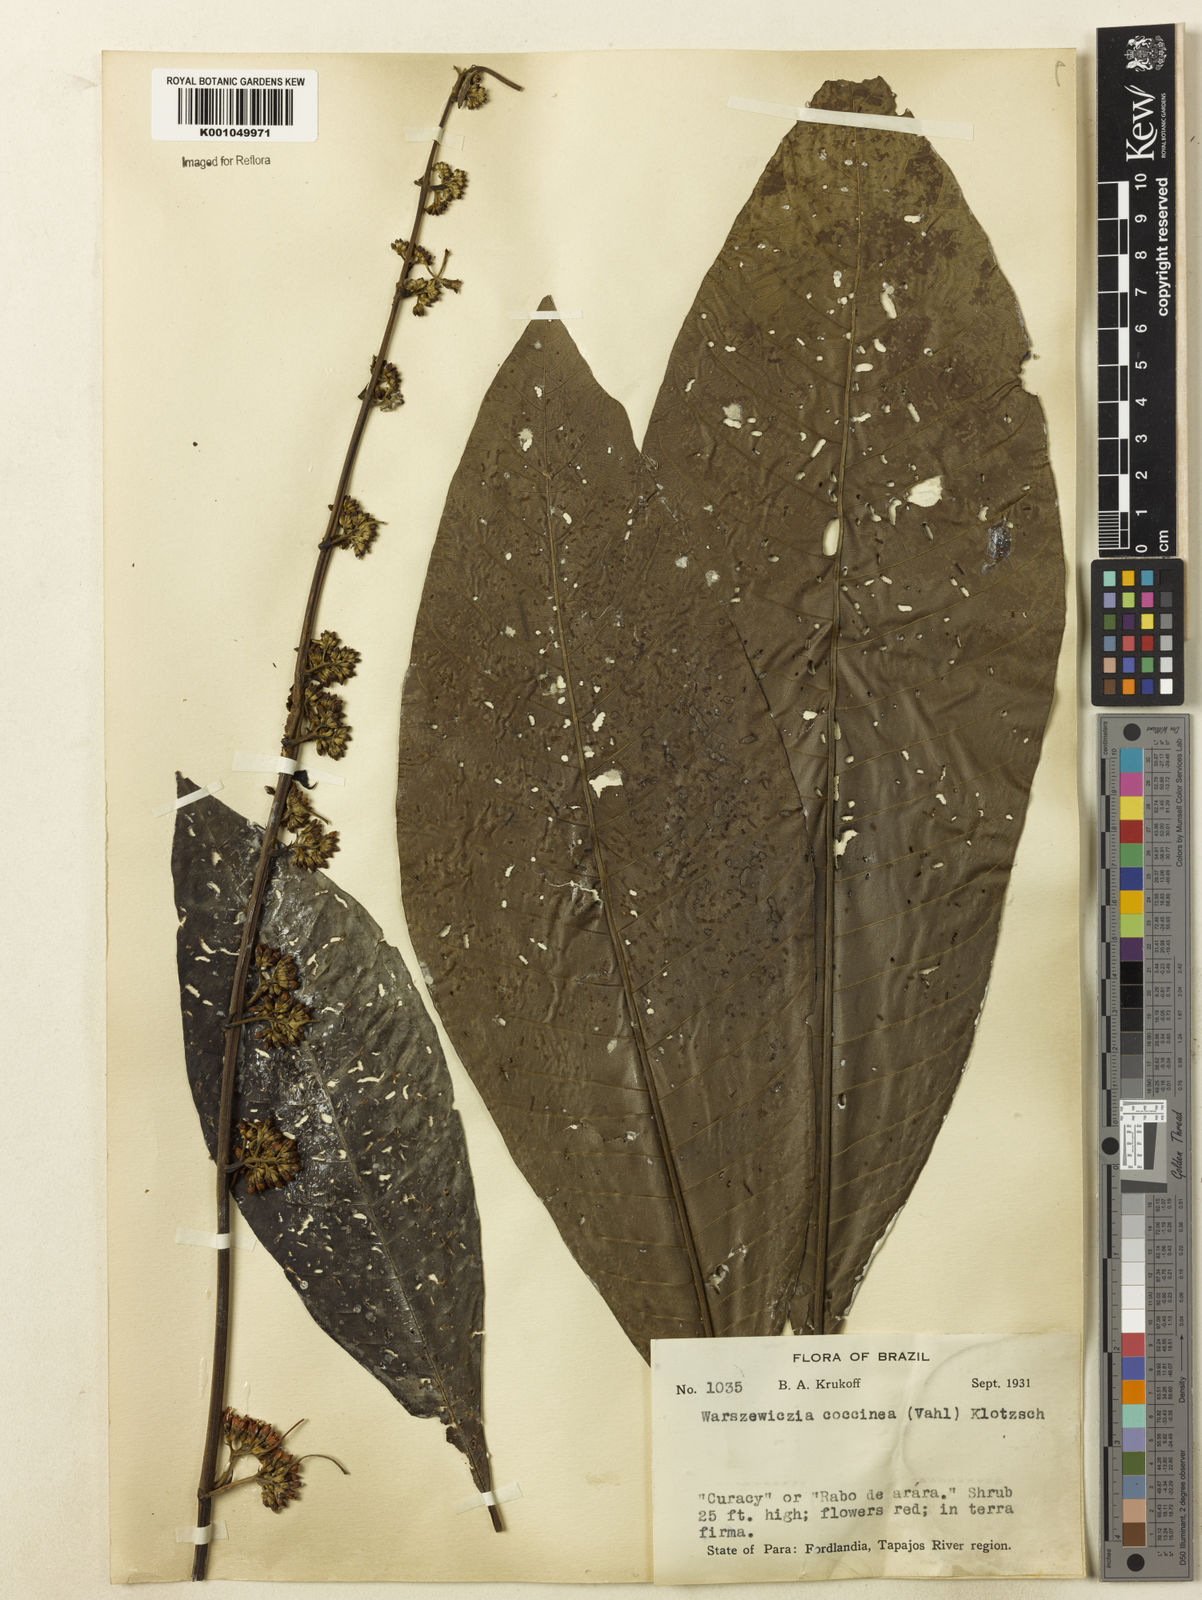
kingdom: Plantae
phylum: Tracheophyta
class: Magnoliopsida
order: Gentianales
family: Rubiaceae
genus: Warszewiczia
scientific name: Warszewiczia coccinea
